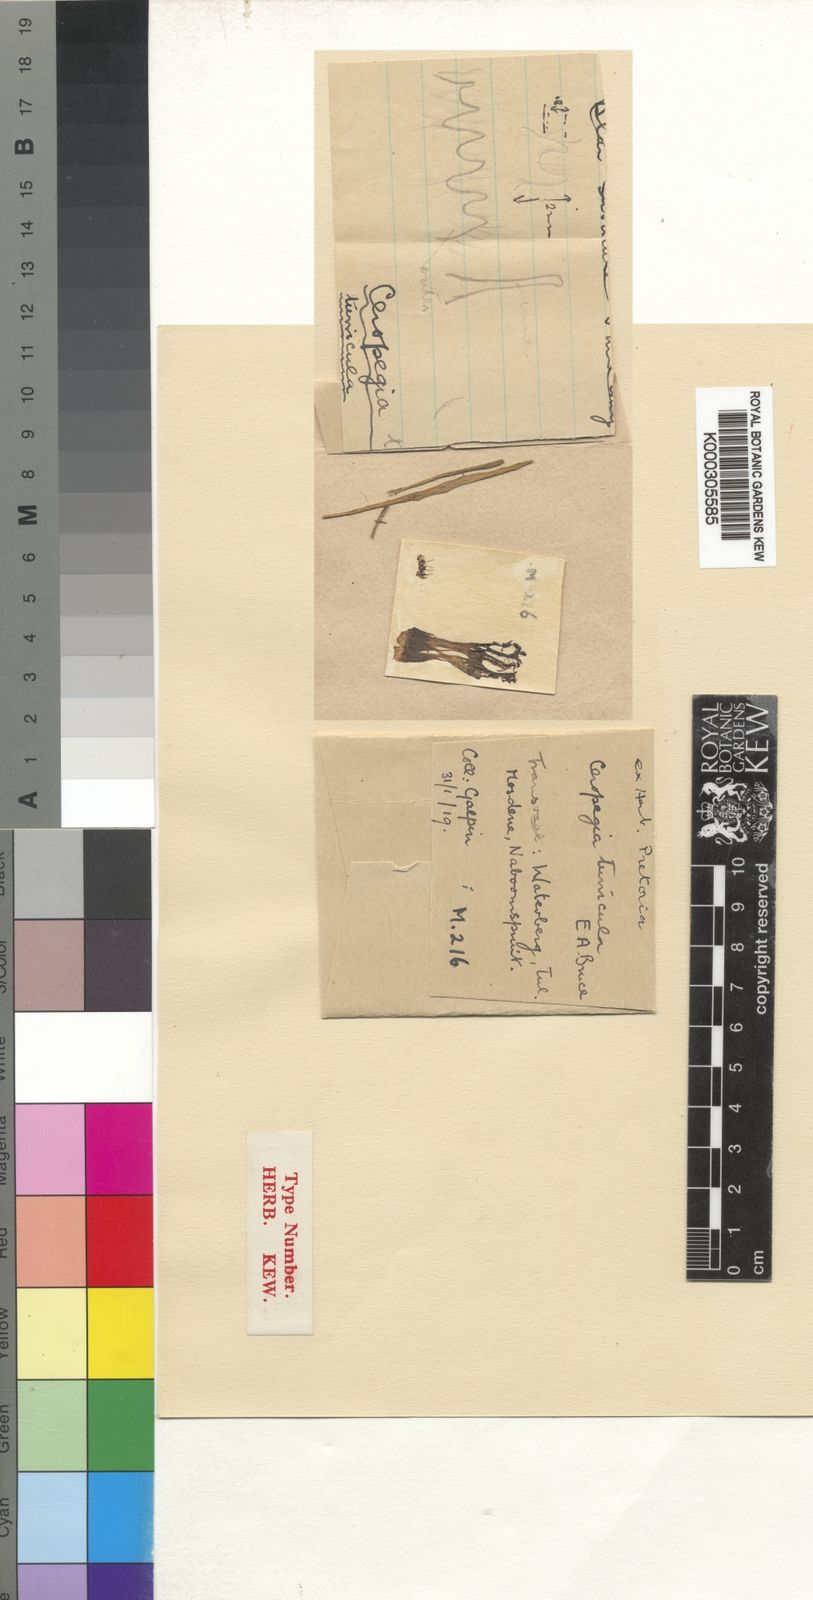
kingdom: Plantae
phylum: Tracheophyta
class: Magnoliopsida
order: Gentianales
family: Apocynaceae
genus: Ceropegia
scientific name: Ceropegia turricula
